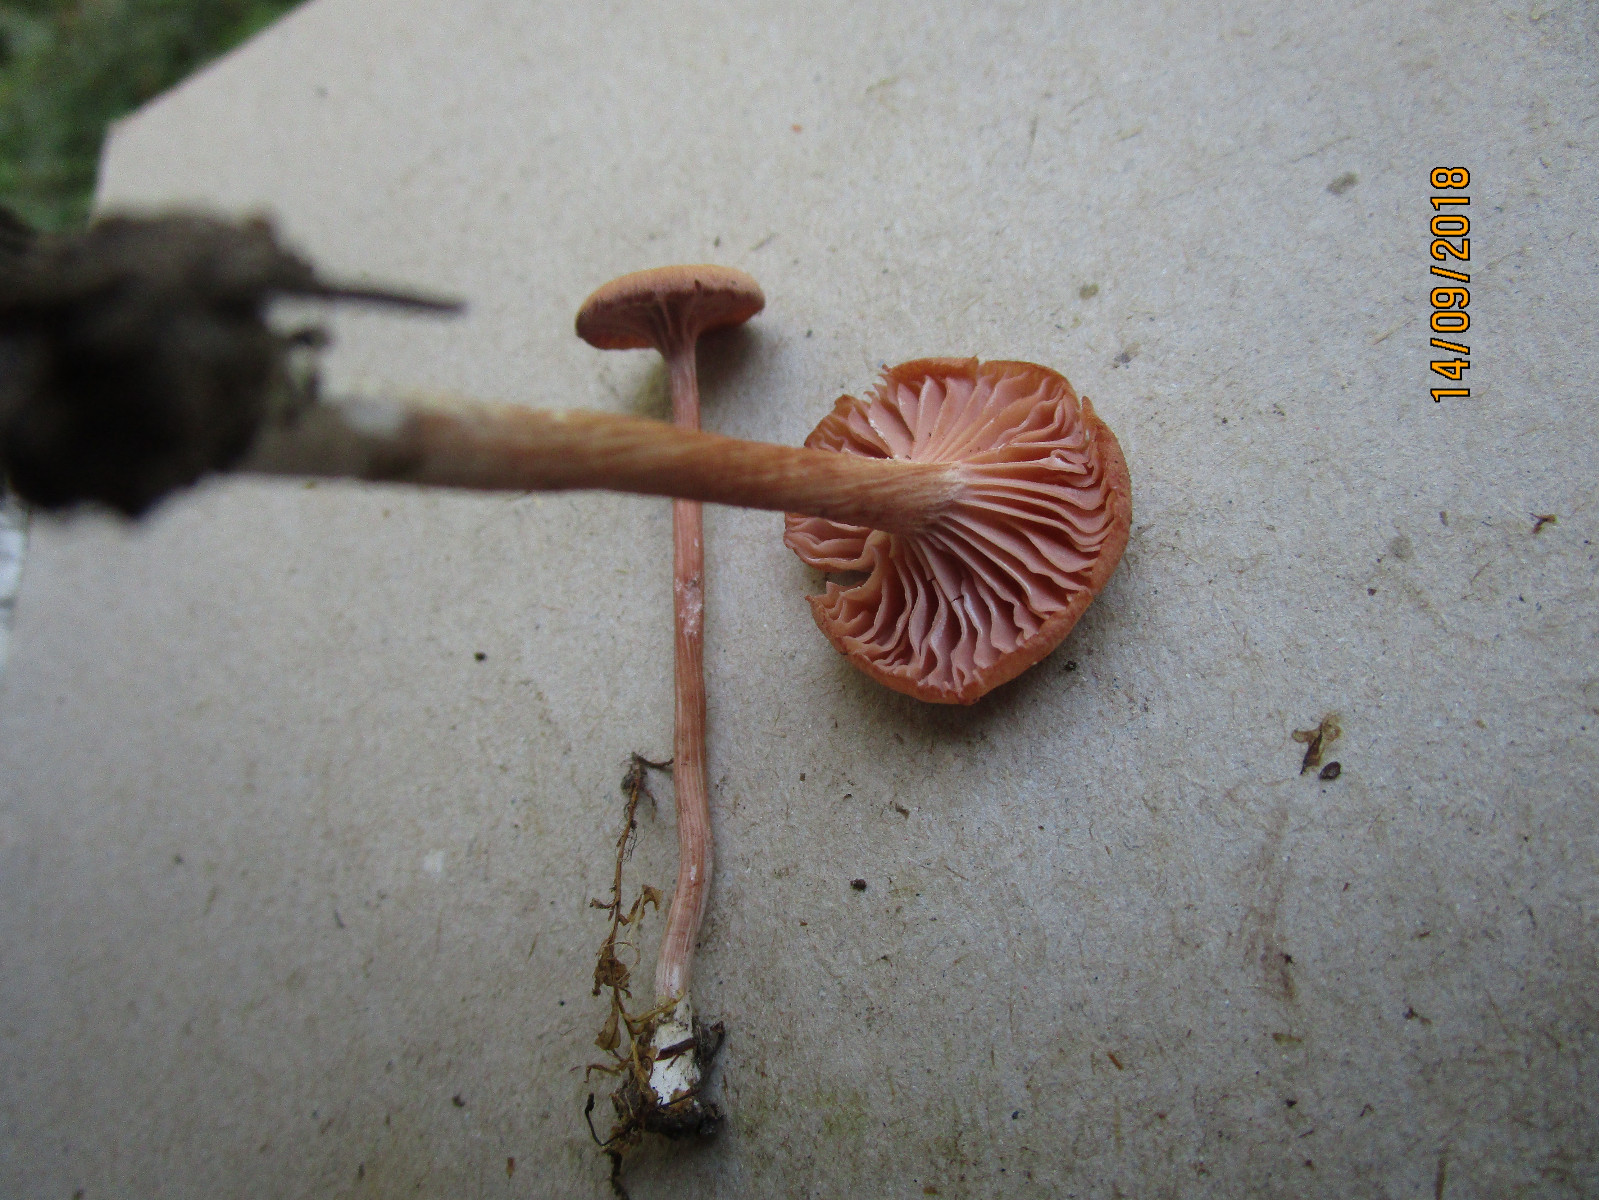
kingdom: Fungi
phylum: Basidiomycota
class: Agaricomycetes
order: Hymenochaetales
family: Rickenellaceae
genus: Rickenella
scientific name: Rickenella fibula
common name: orange mosnavlehat
